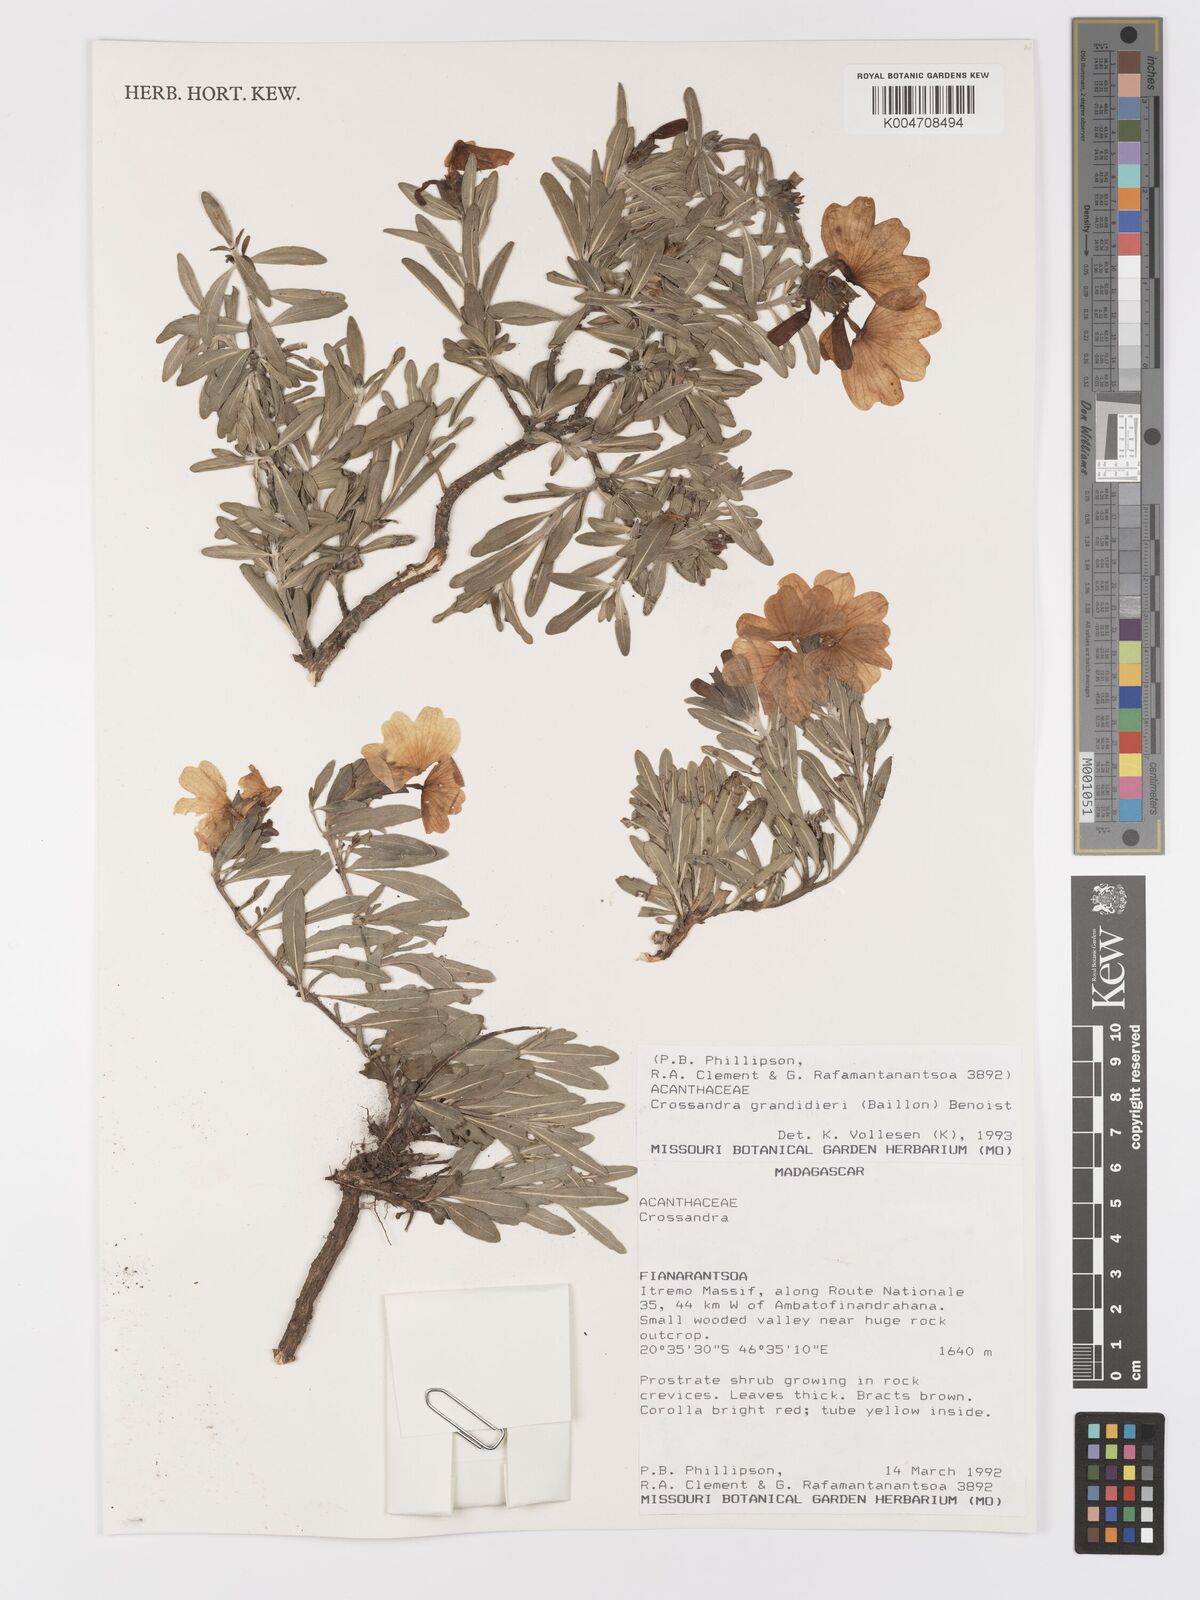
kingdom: Plantae
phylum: Tracheophyta
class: Magnoliopsida
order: Lamiales
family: Acanthaceae
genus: Crossandra
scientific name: Crossandra grandidieri
